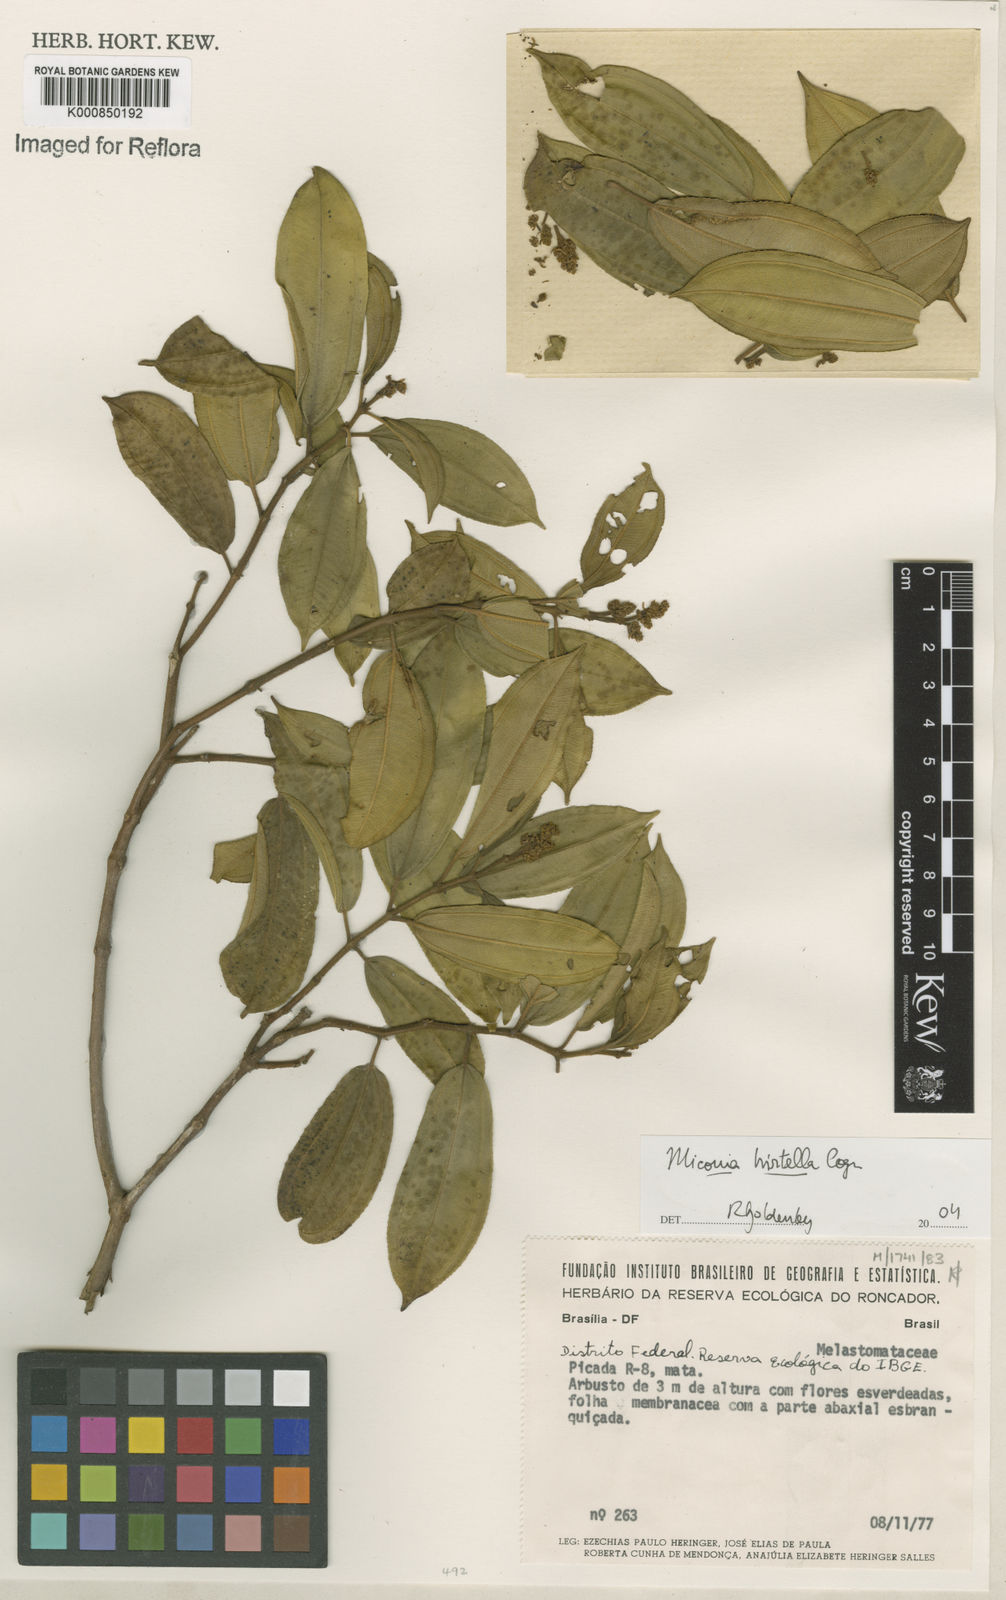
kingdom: Plantae
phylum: Tracheophyta
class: Magnoliopsida
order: Myrtales
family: Melastomataceae
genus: Miconia
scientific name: Miconia hirta
